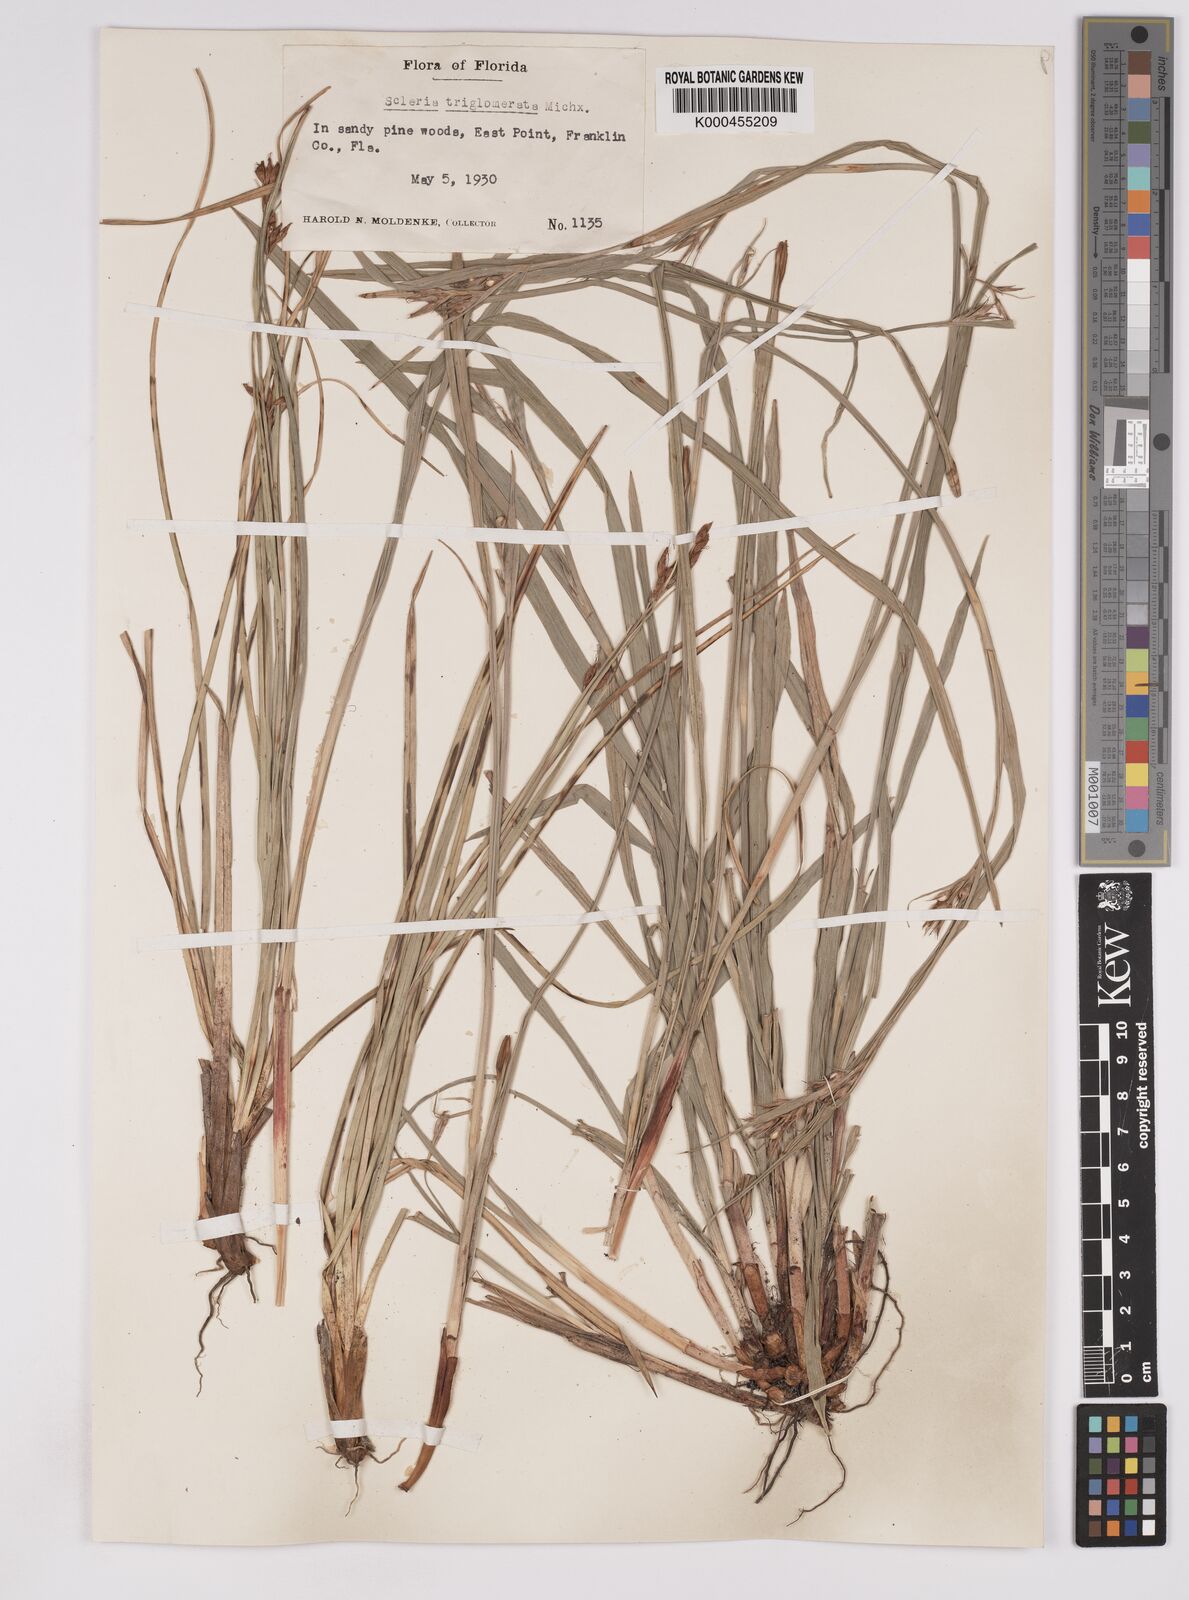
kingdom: Plantae
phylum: Tracheophyta
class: Liliopsida
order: Poales
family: Cyperaceae
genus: Scleria
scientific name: Scleria triglomerata
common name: Whip nutrush
